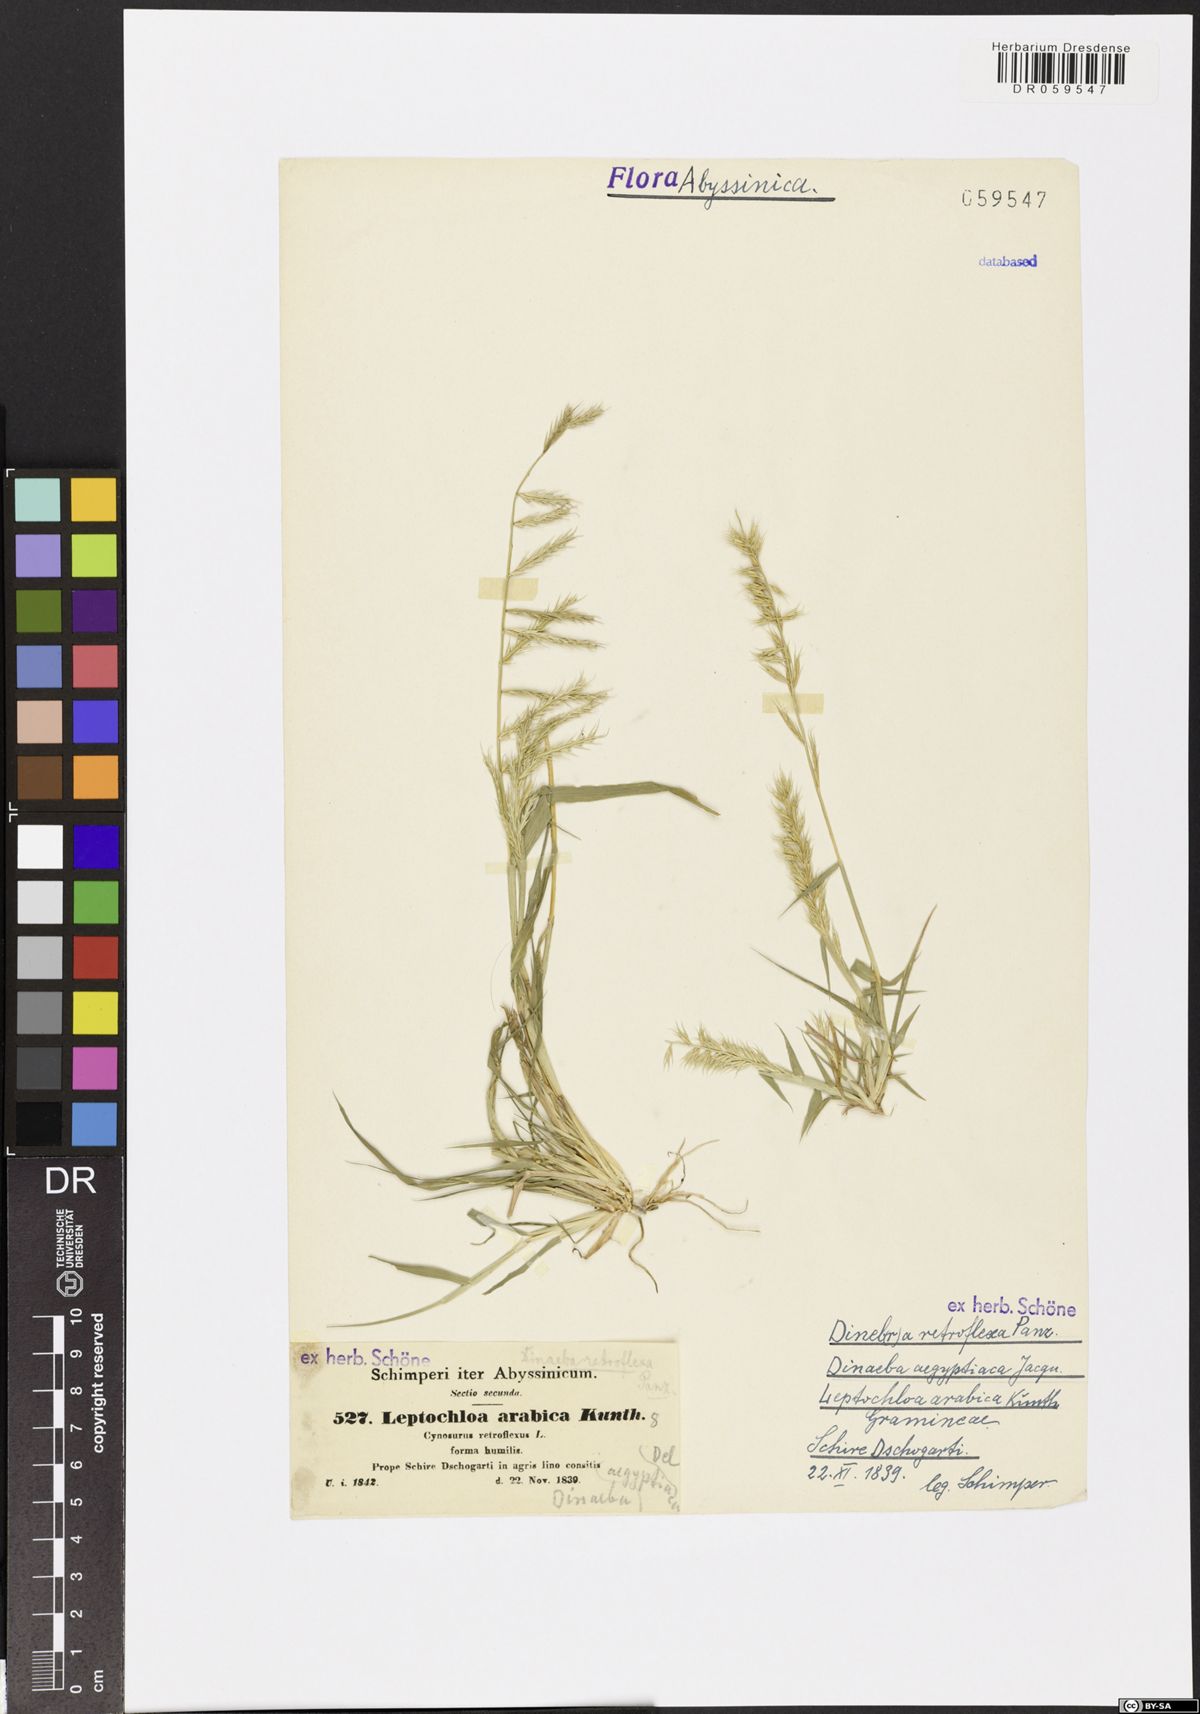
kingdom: Plantae
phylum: Tracheophyta
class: Liliopsida
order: Poales
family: Poaceae
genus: Dinebra
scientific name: Dinebra retroflexa
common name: Viper grass
